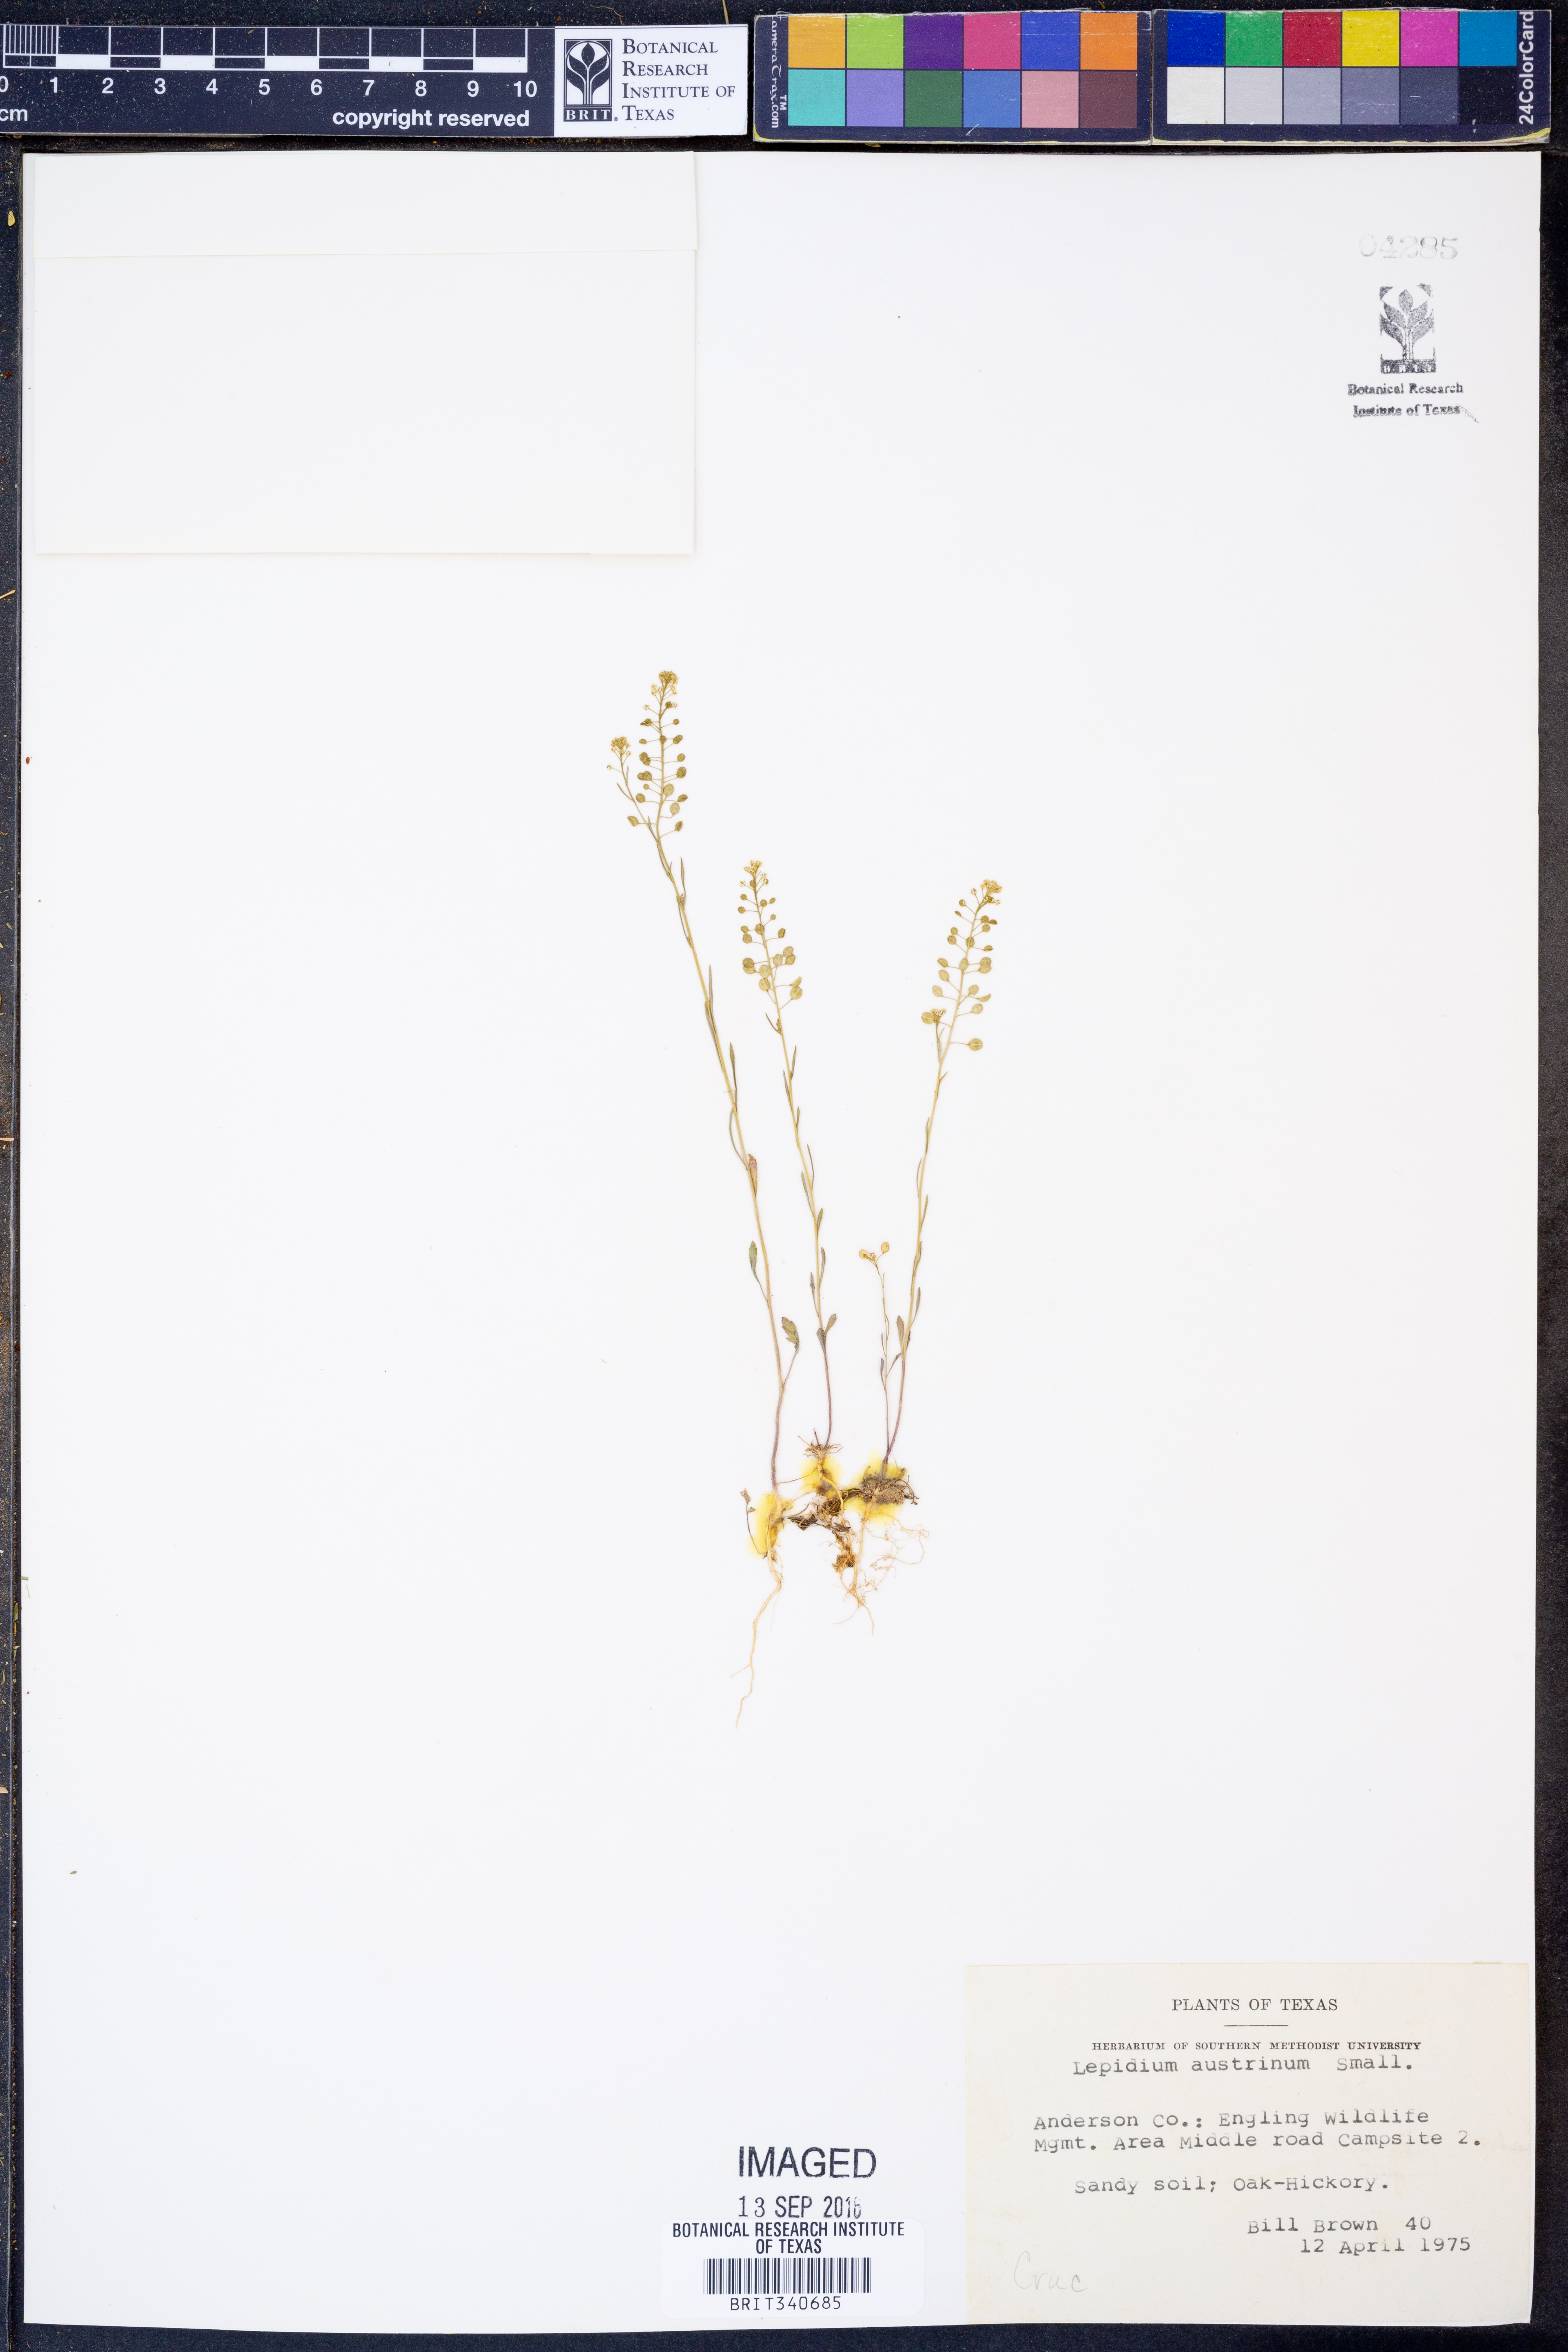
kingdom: Plantae
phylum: Tracheophyta
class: Magnoliopsida
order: Brassicales
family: Brassicaceae
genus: Lepidium
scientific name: Lepidium austrinum
